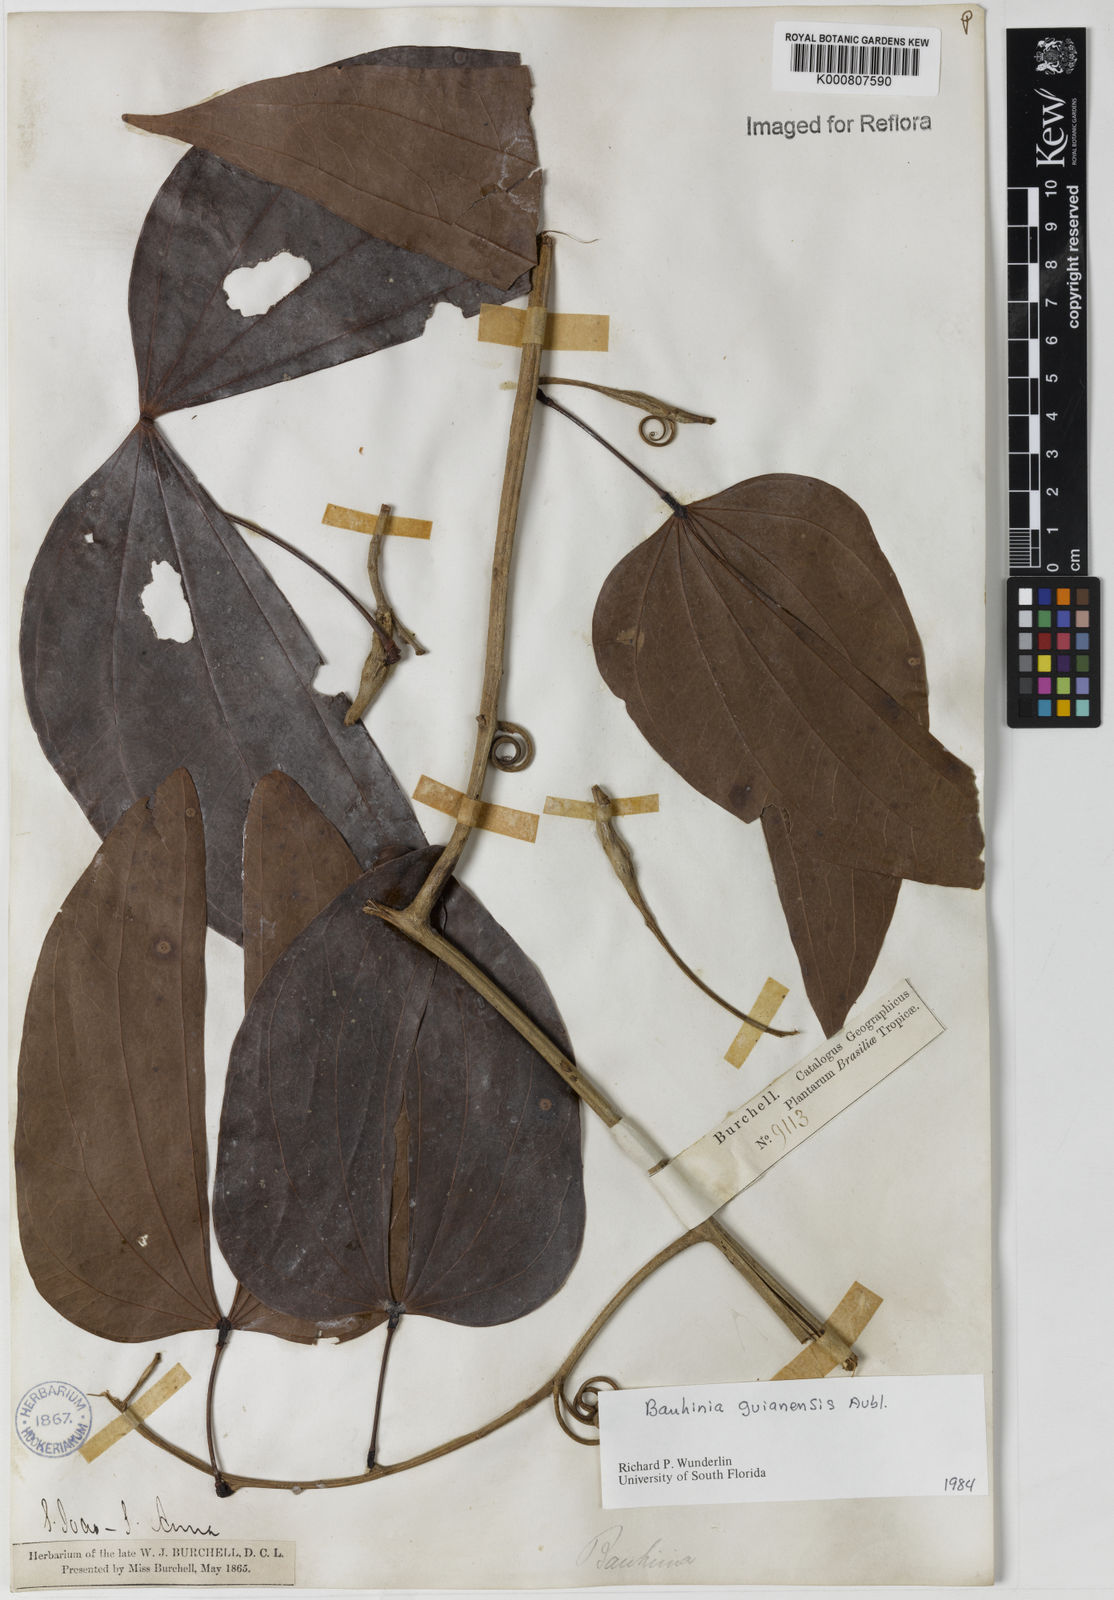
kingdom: Plantae
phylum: Tracheophyta
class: Magnoliopsida
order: Fabales
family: Fabaceae
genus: Schnella
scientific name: Schnella guianensis
